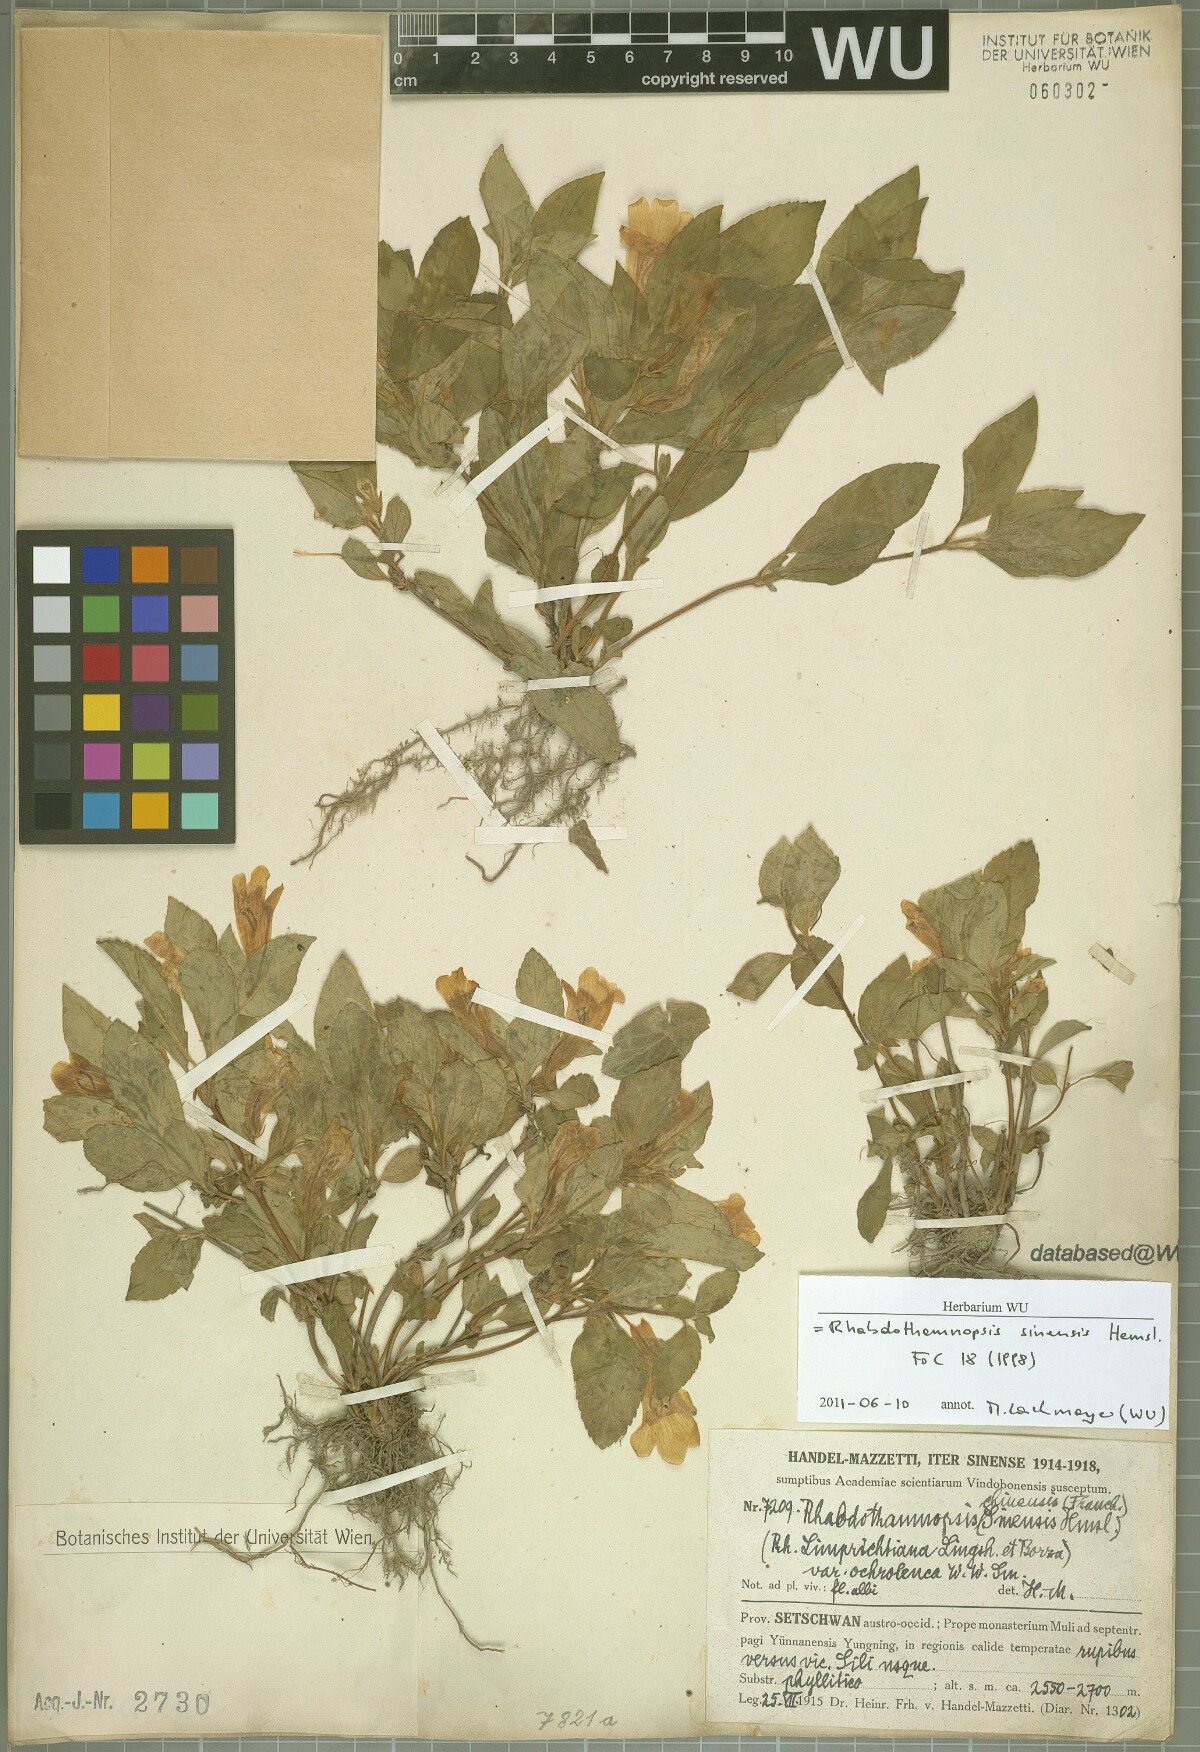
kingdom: Plantae
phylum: Tracheophyta
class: Magnoliopsida
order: Lamiales
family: Gesneriaceae
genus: Rhabdothamnopsis
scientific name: Rhabdothamnopsis sinensis
